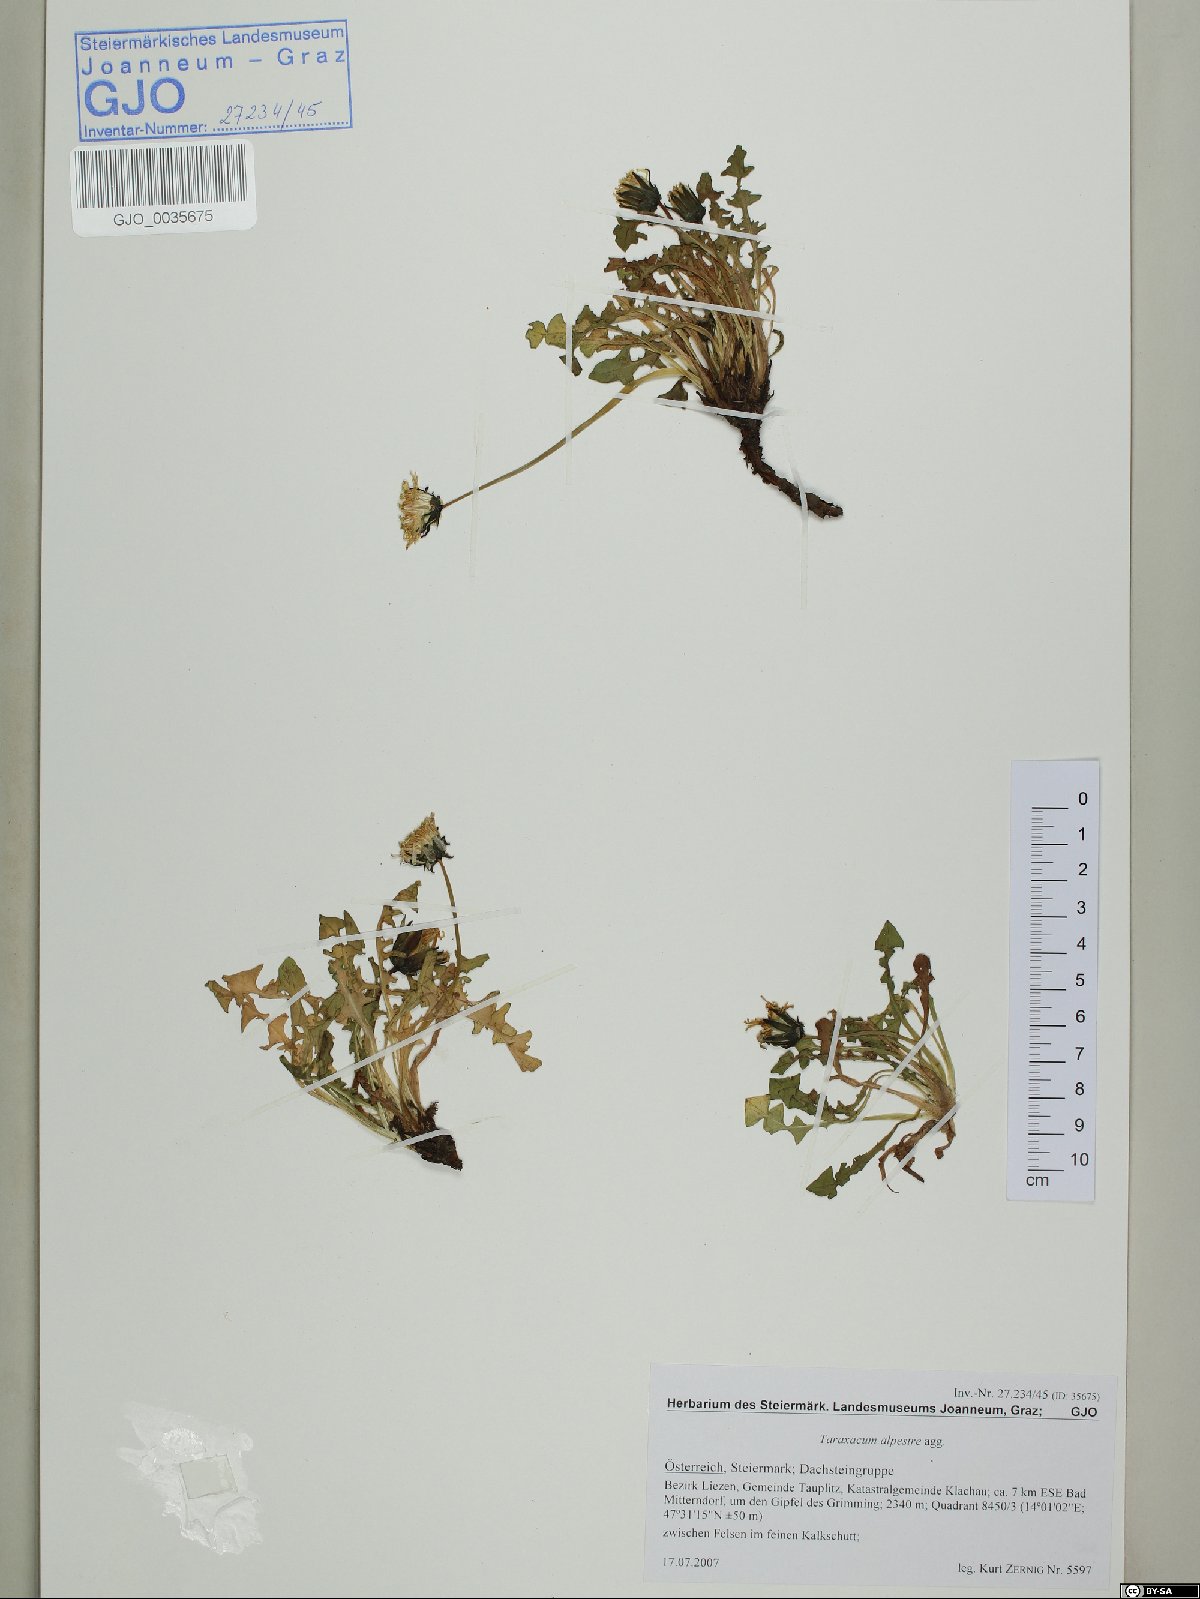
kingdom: Plantae
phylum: Tracheophyta
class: Magnoliopsida
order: Asterales
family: Asteraceae
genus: Taraxacum
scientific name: Taraxacum fontanum
